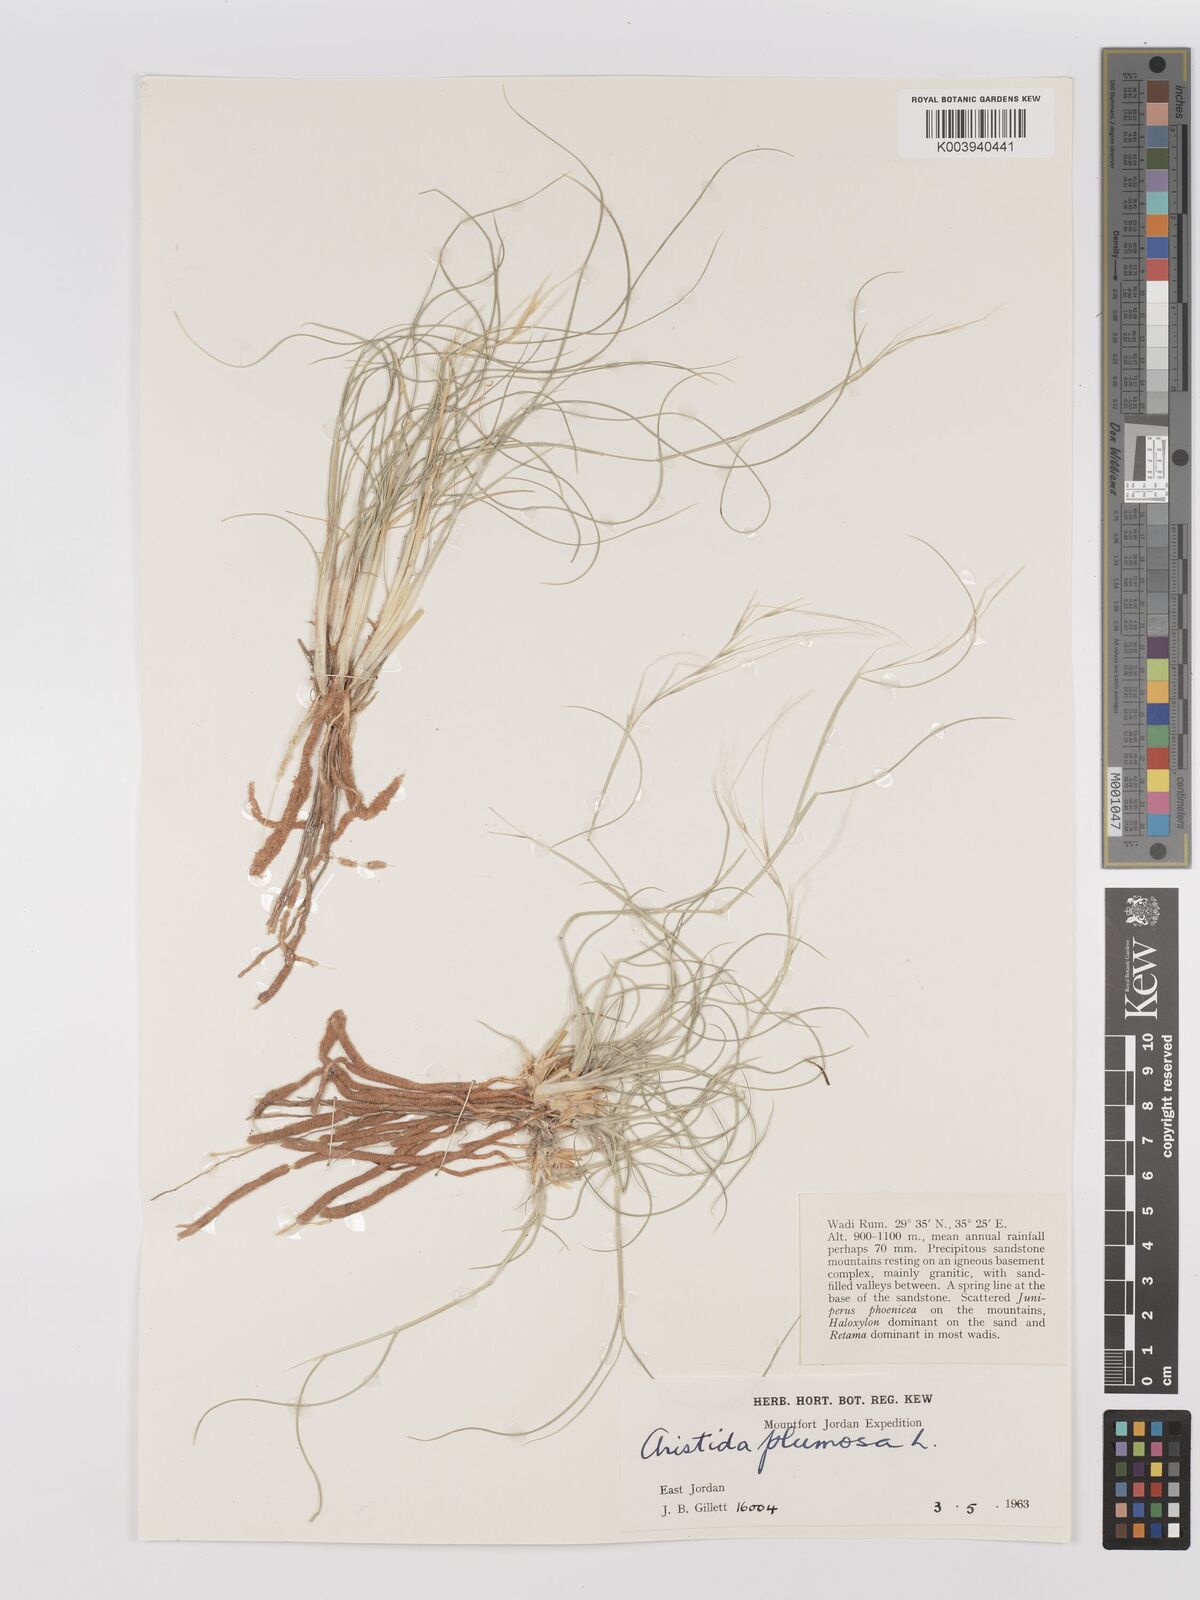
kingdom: Plantae
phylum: Tracheophyta
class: Liliopsida
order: Poales
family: Poaceae
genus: Stipagrostis
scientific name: Stipagrostis plumosa
